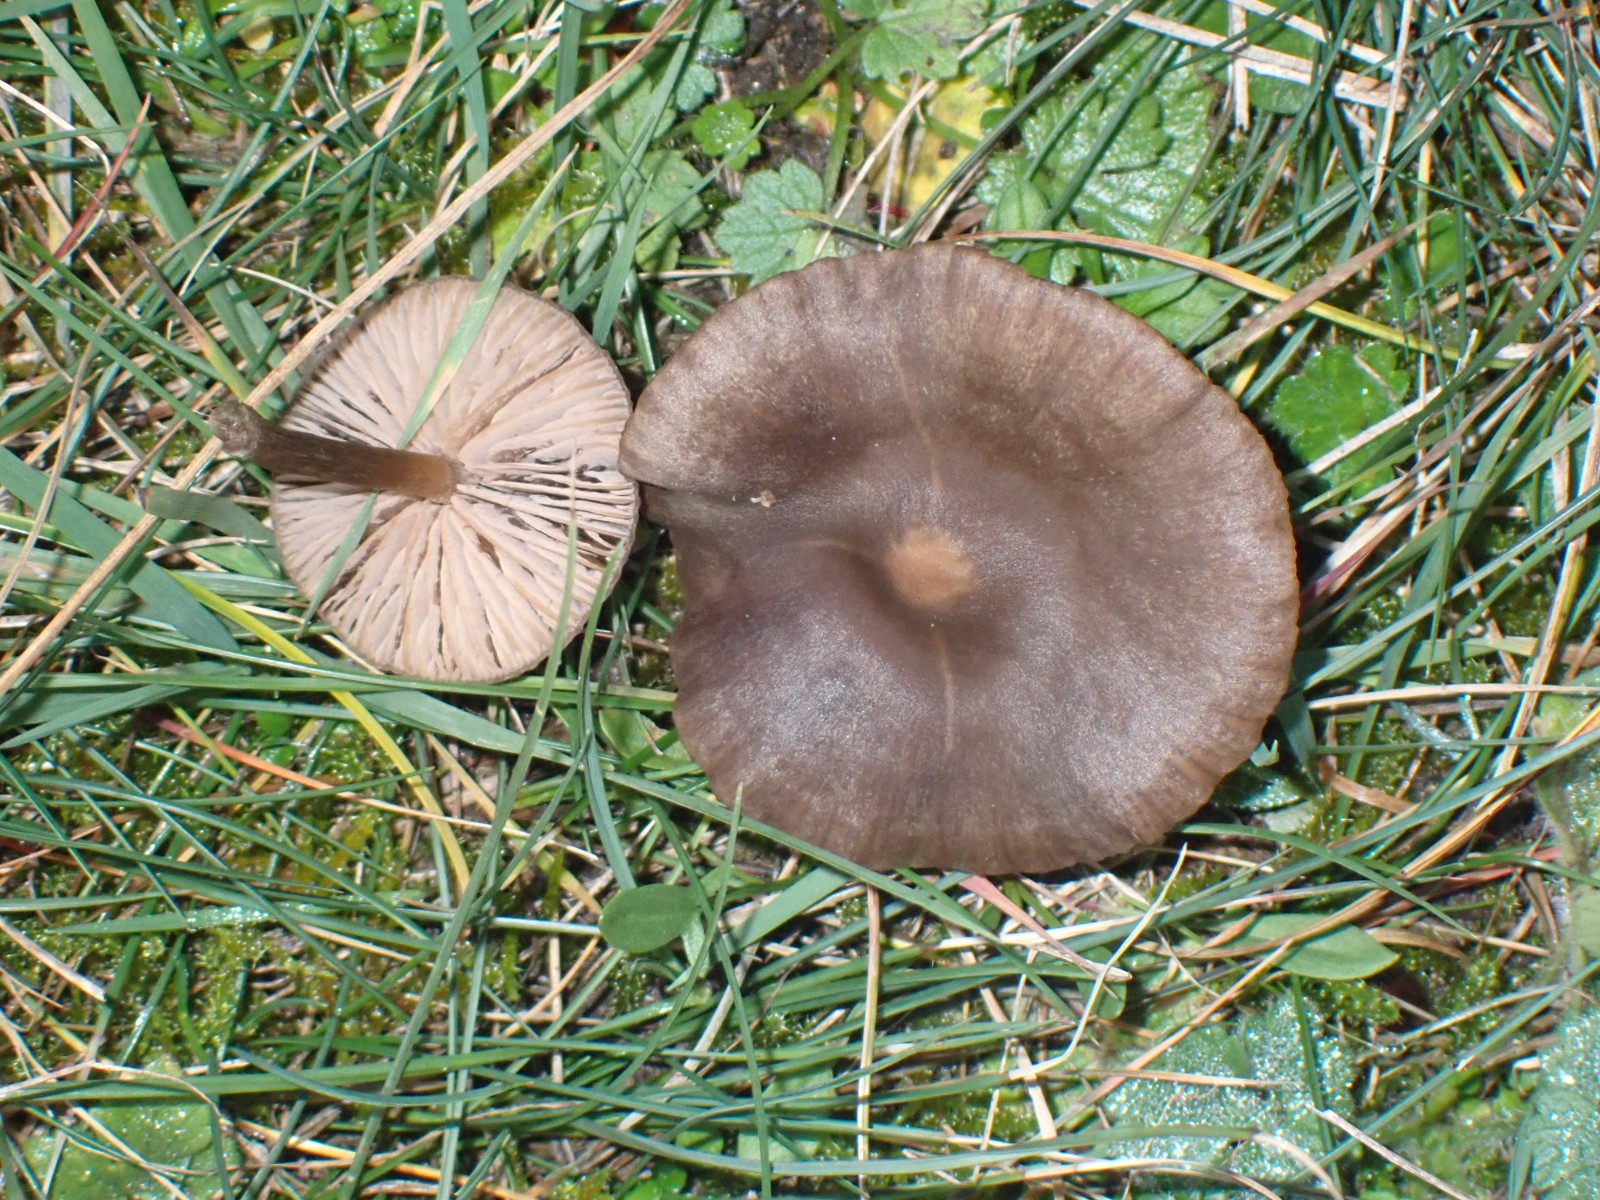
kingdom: Fungi
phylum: Basidiomycota
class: Agaricomycetes
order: Agaricales
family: Entolomataceae
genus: Entoloma
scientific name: Entoloma
